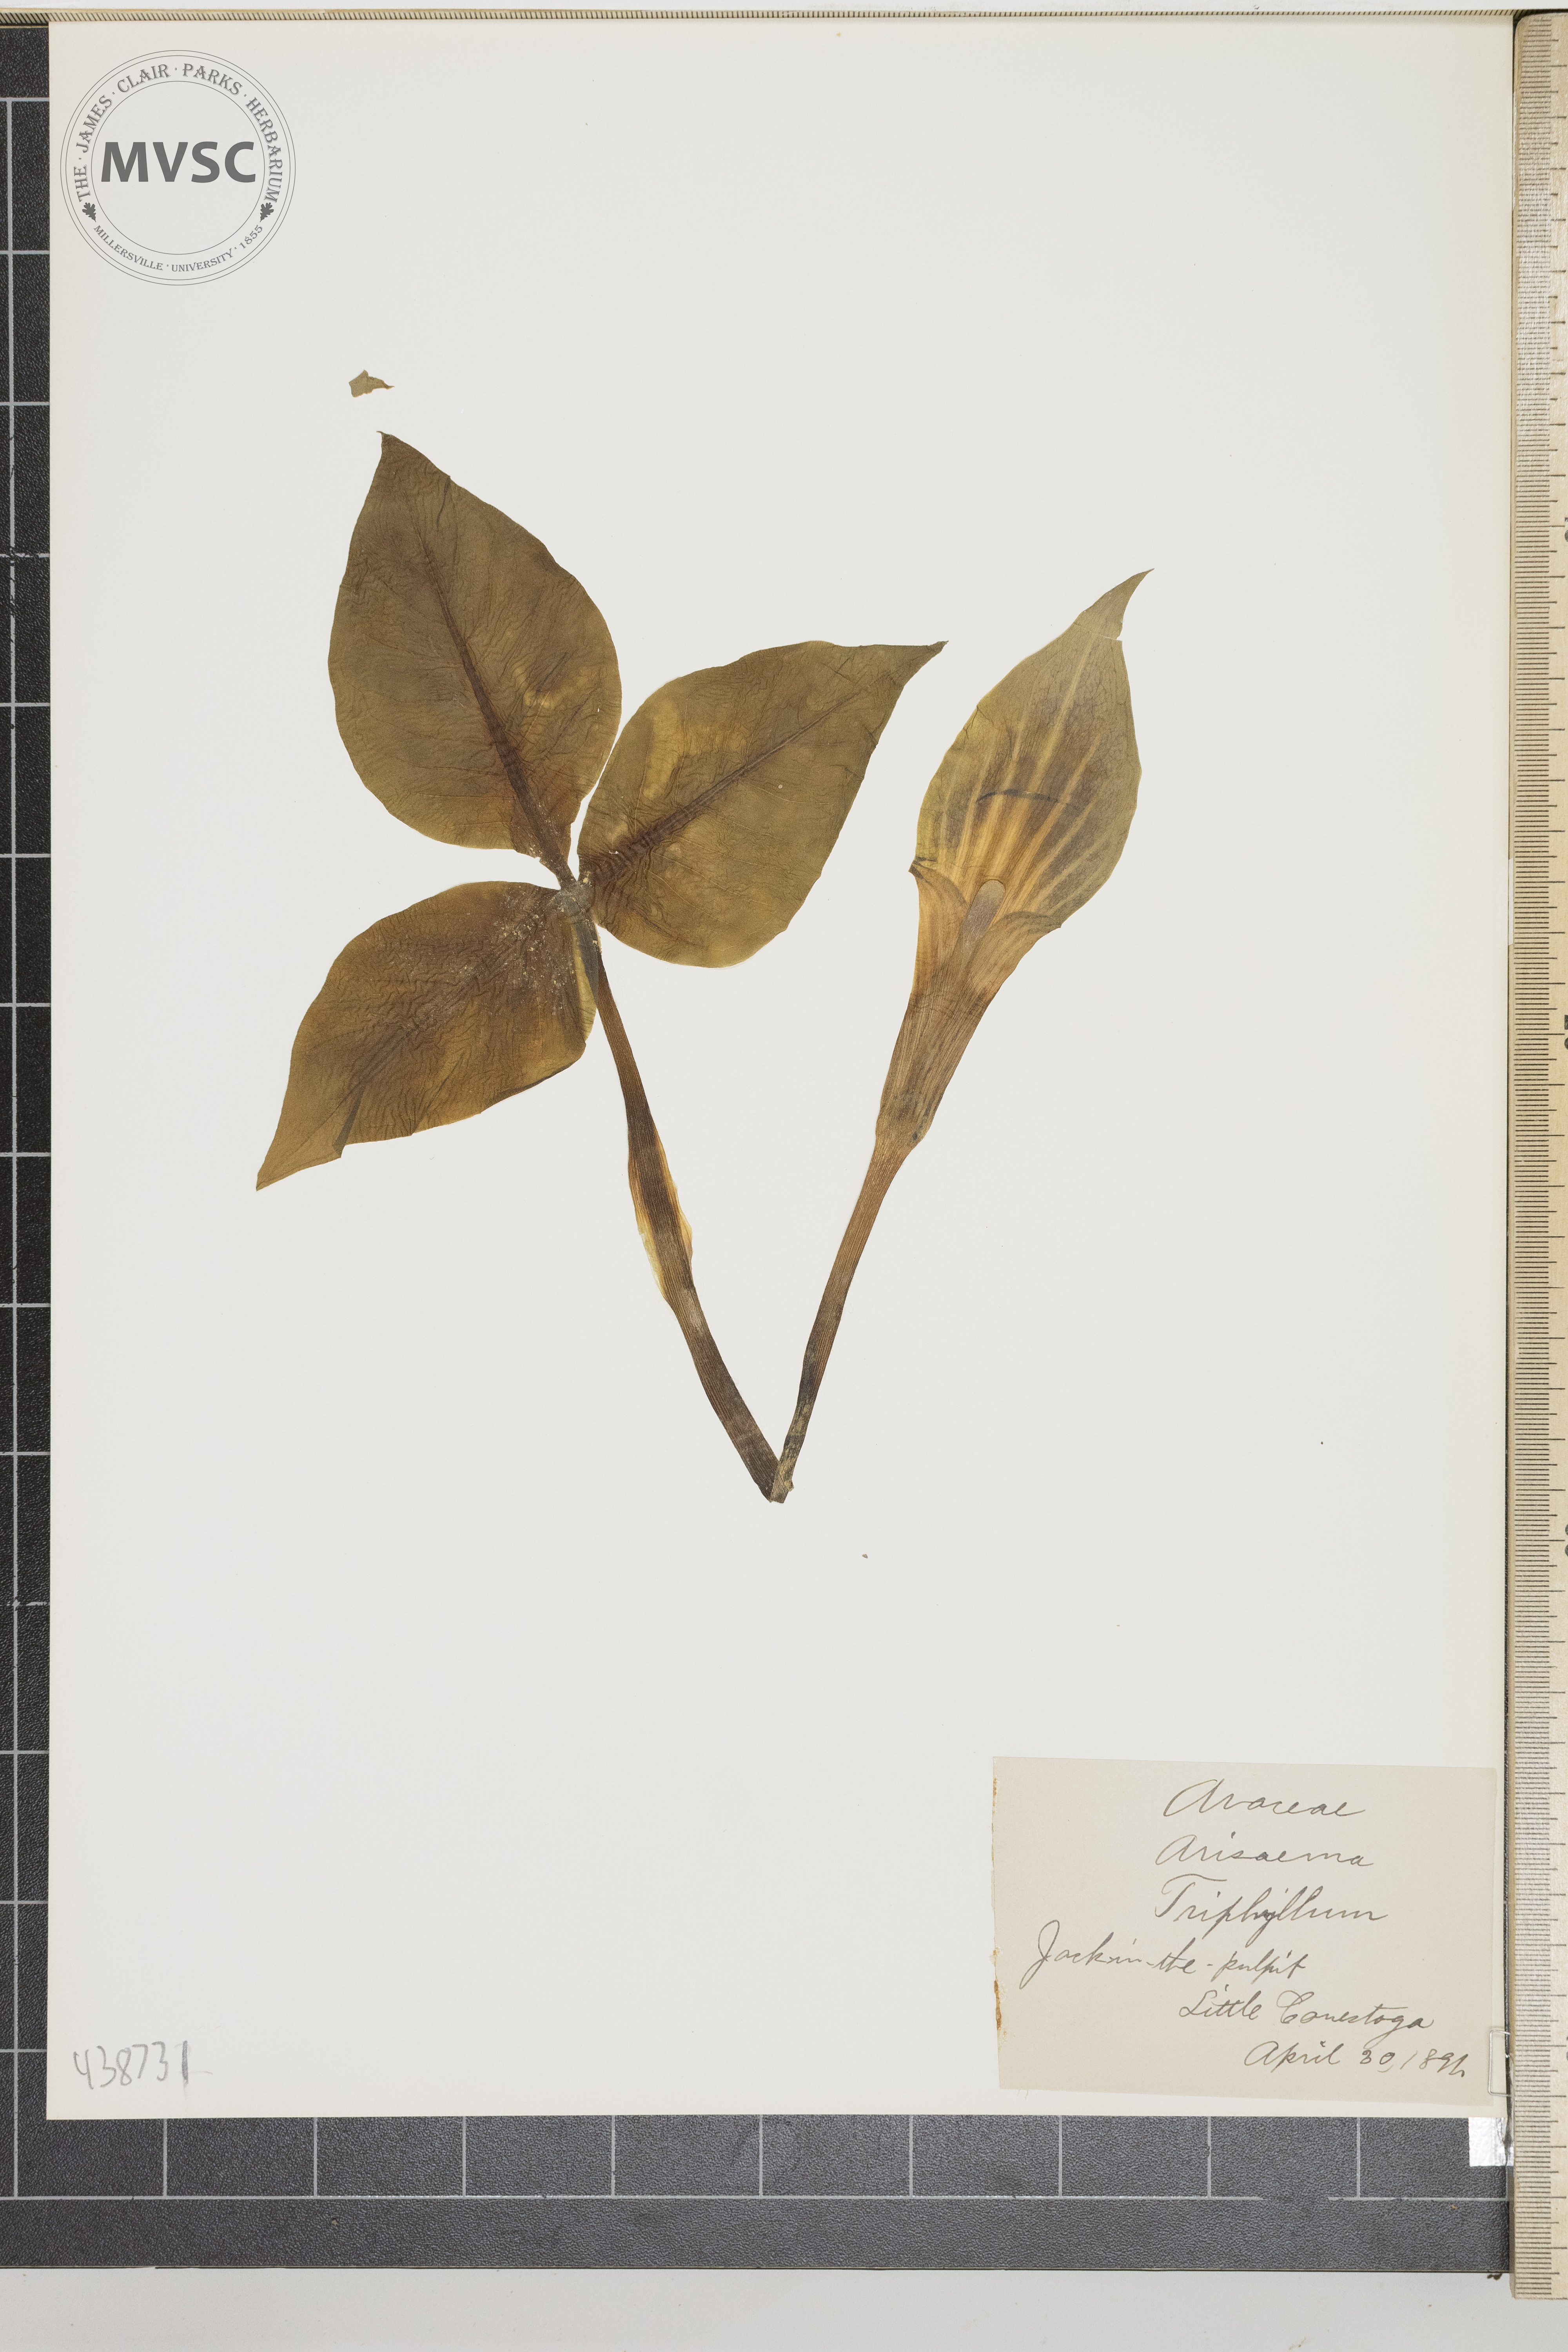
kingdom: Plantae
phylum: Tracheophyta
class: Liliopsida
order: Alismatales
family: Araceae
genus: Arisaema
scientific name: Arisaema triphyllum
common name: Jack in the Pulpit
